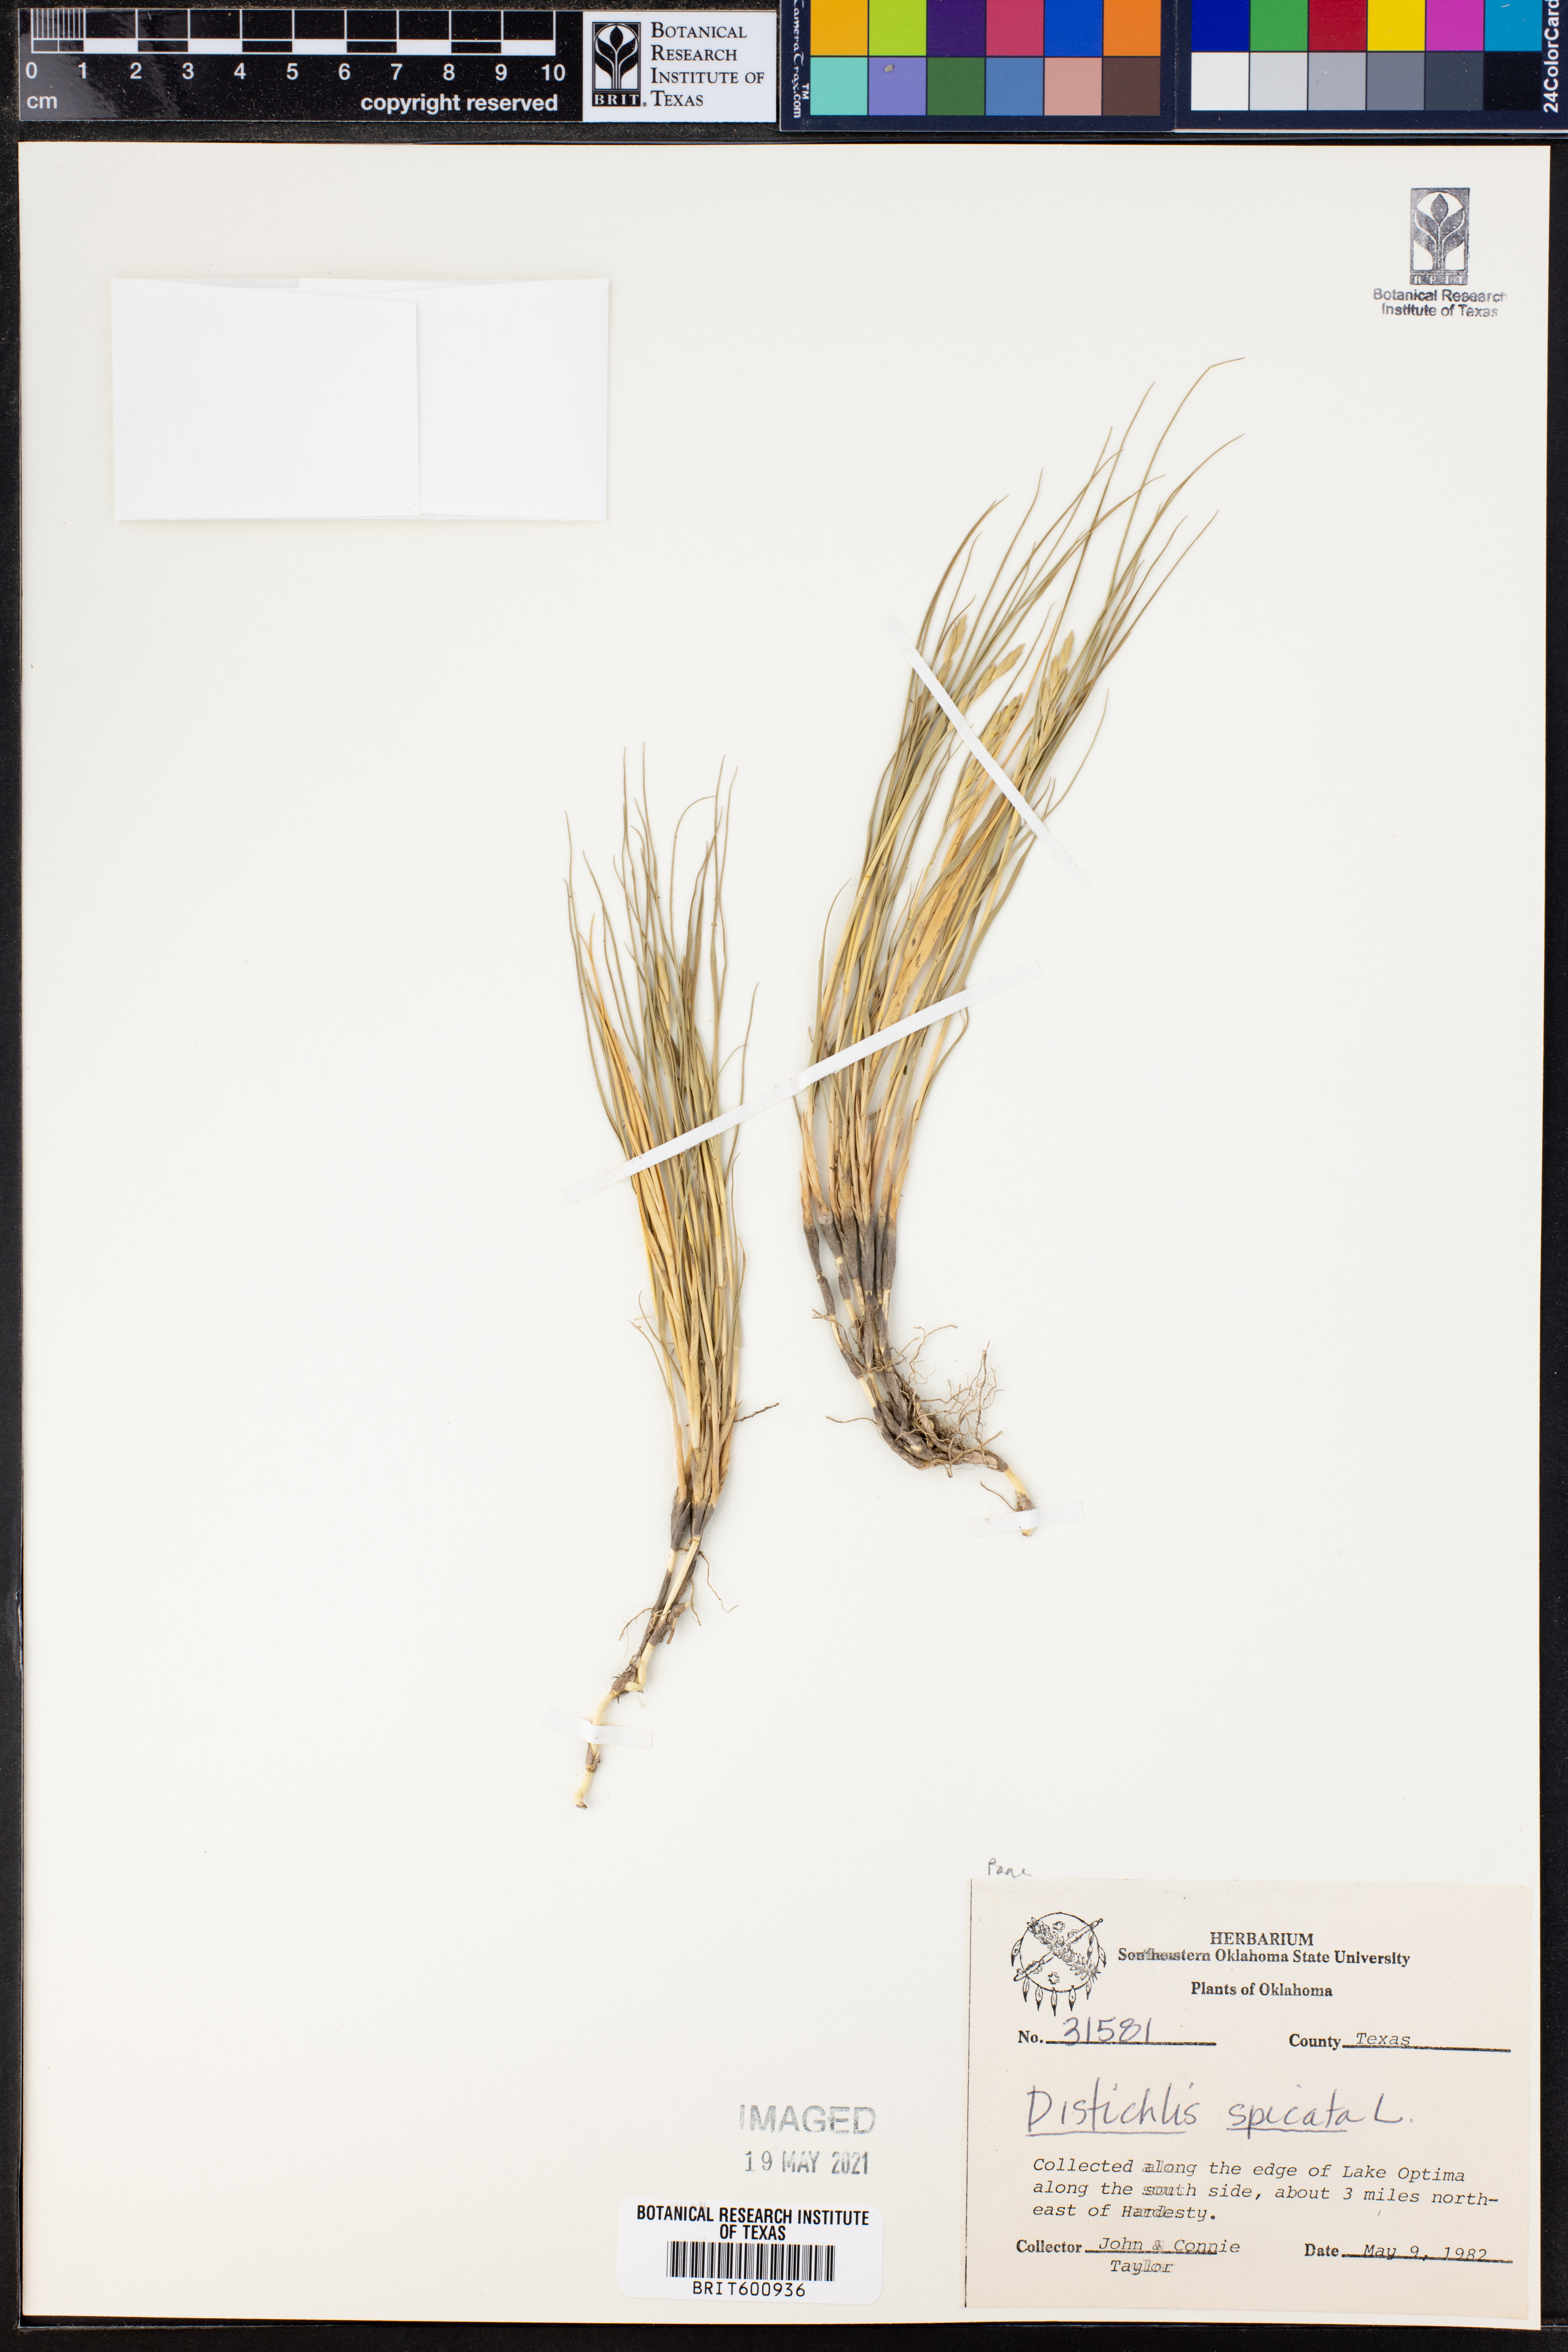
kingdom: Plantae
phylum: Tracheophyta
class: Liliopsida
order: Poales
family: Poaceae
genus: Distichlis
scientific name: Distichlis spicata
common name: Saltgrass
